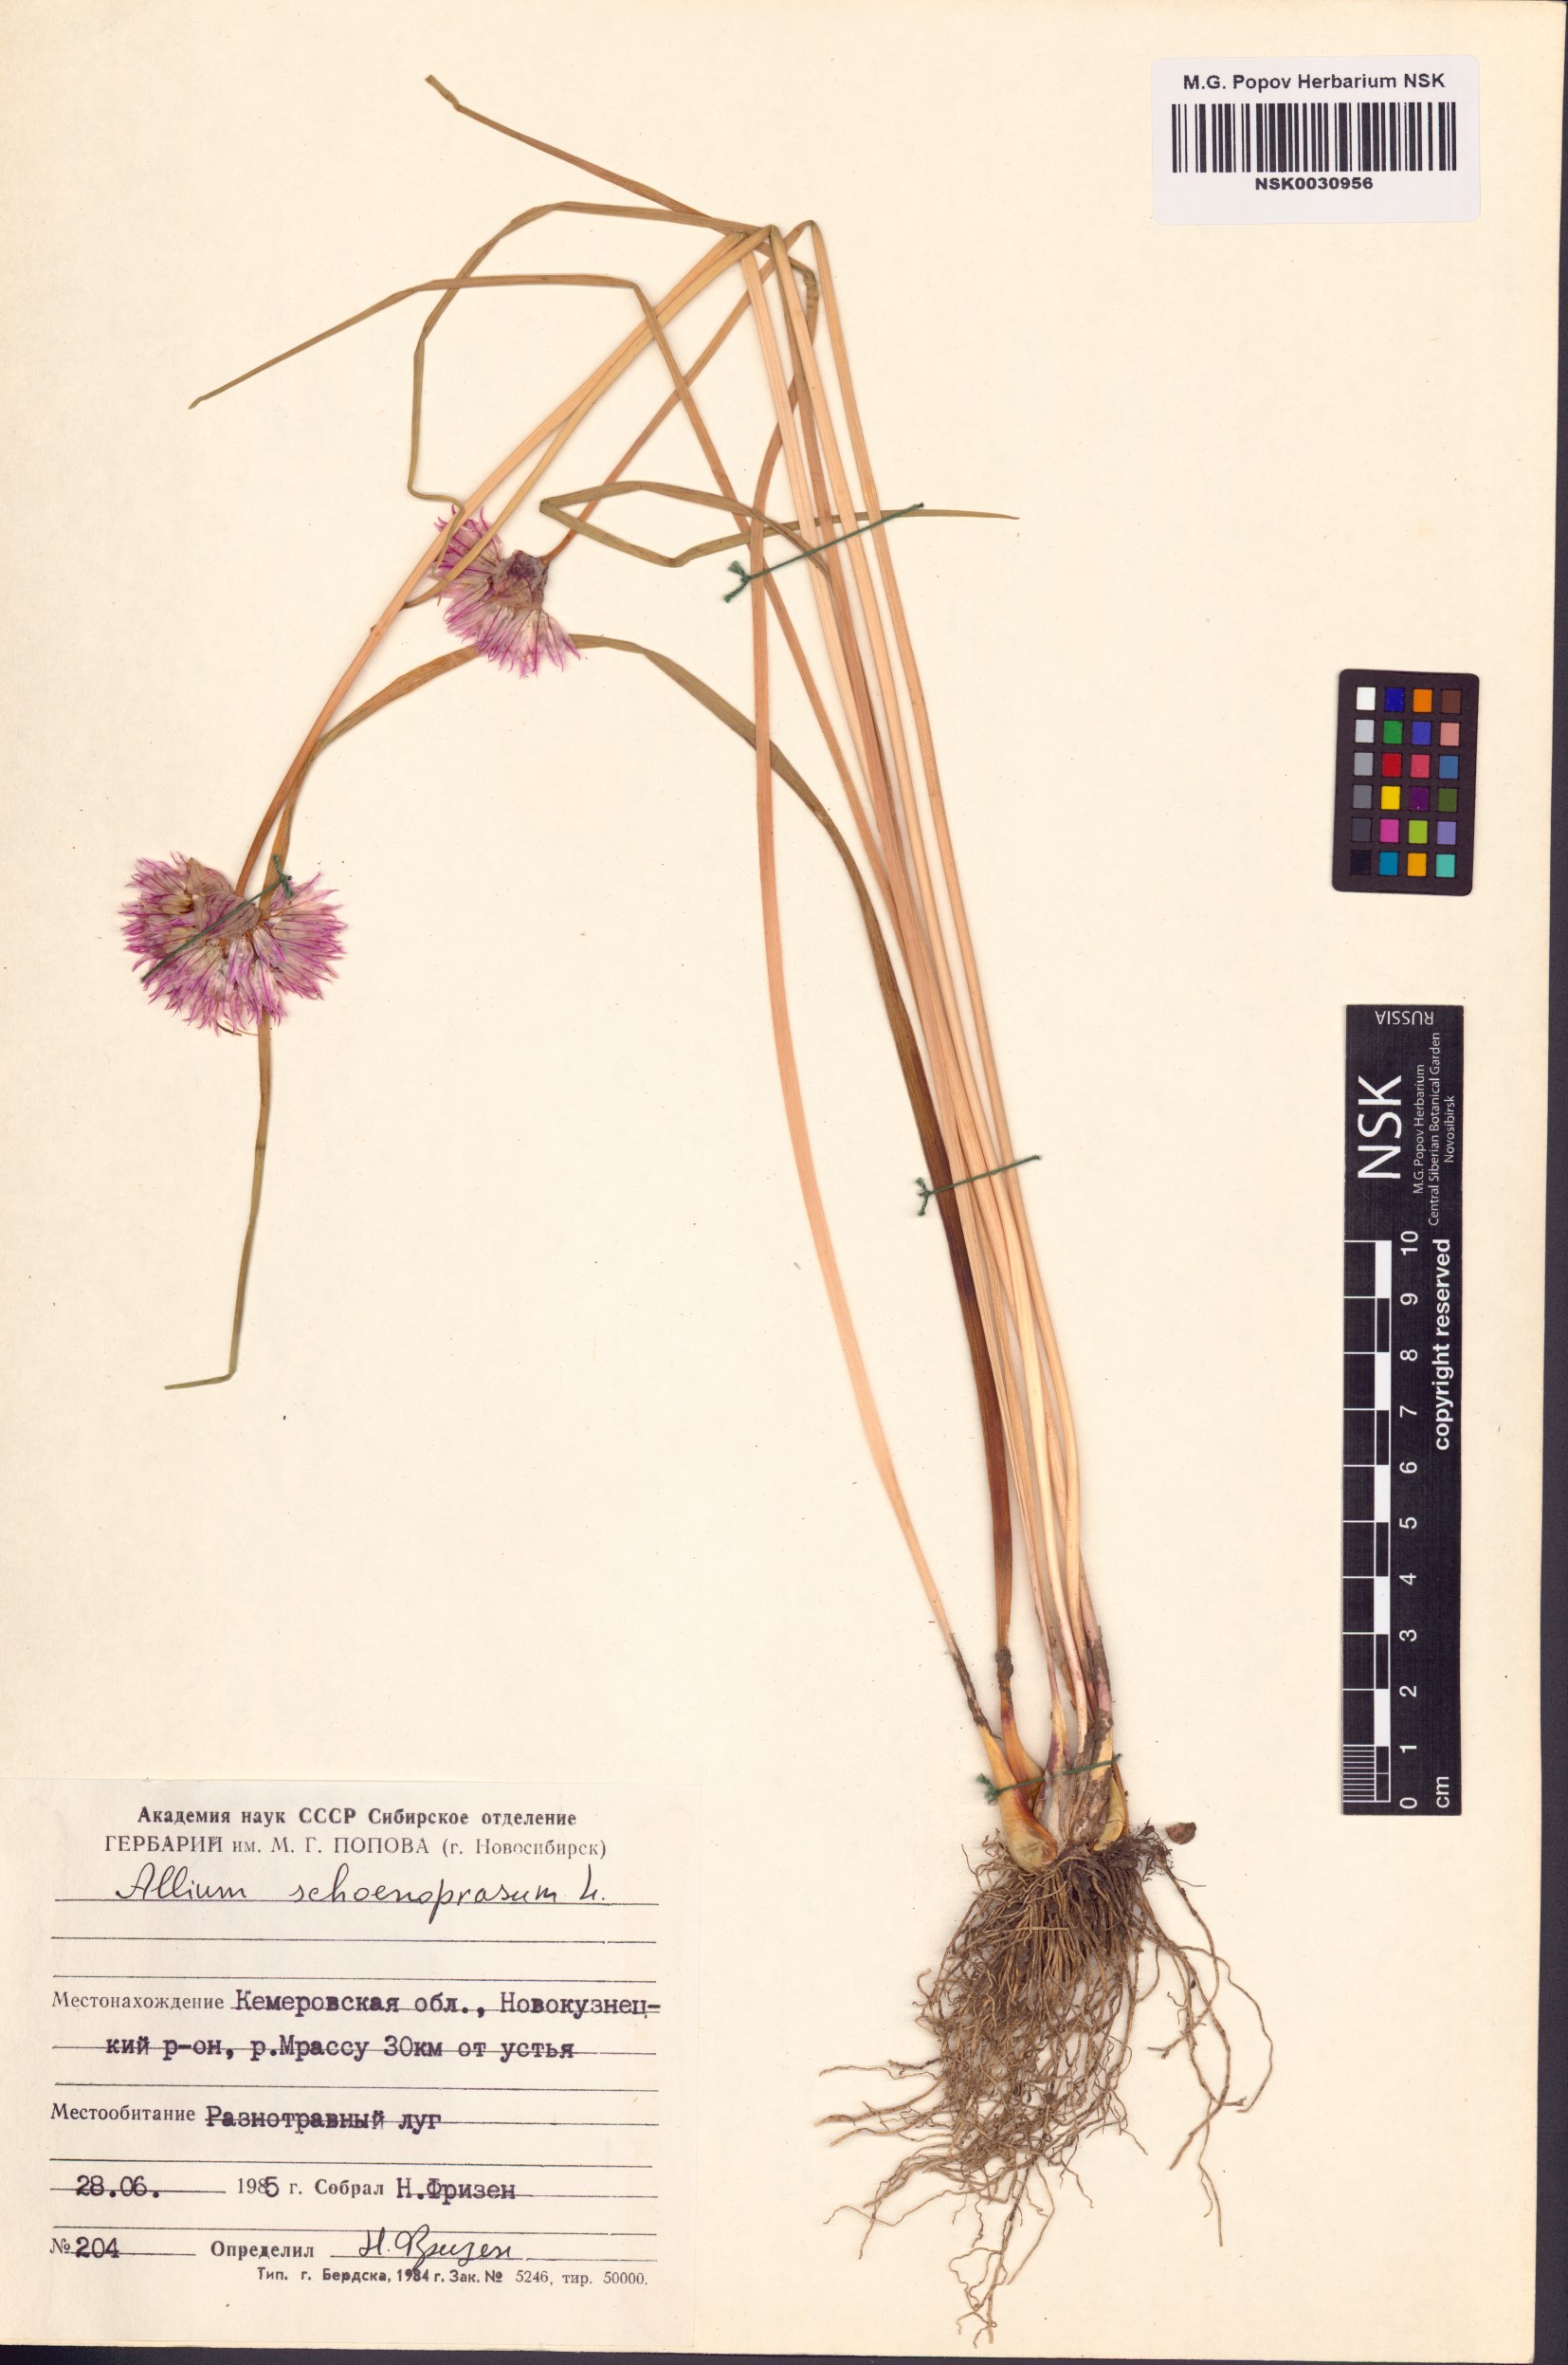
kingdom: Plantae
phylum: Tracheophyta
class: Liliopsida
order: Asparagales
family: Amaryllidaceae
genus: Allium
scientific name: Allium schoenoprasum
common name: Chives
